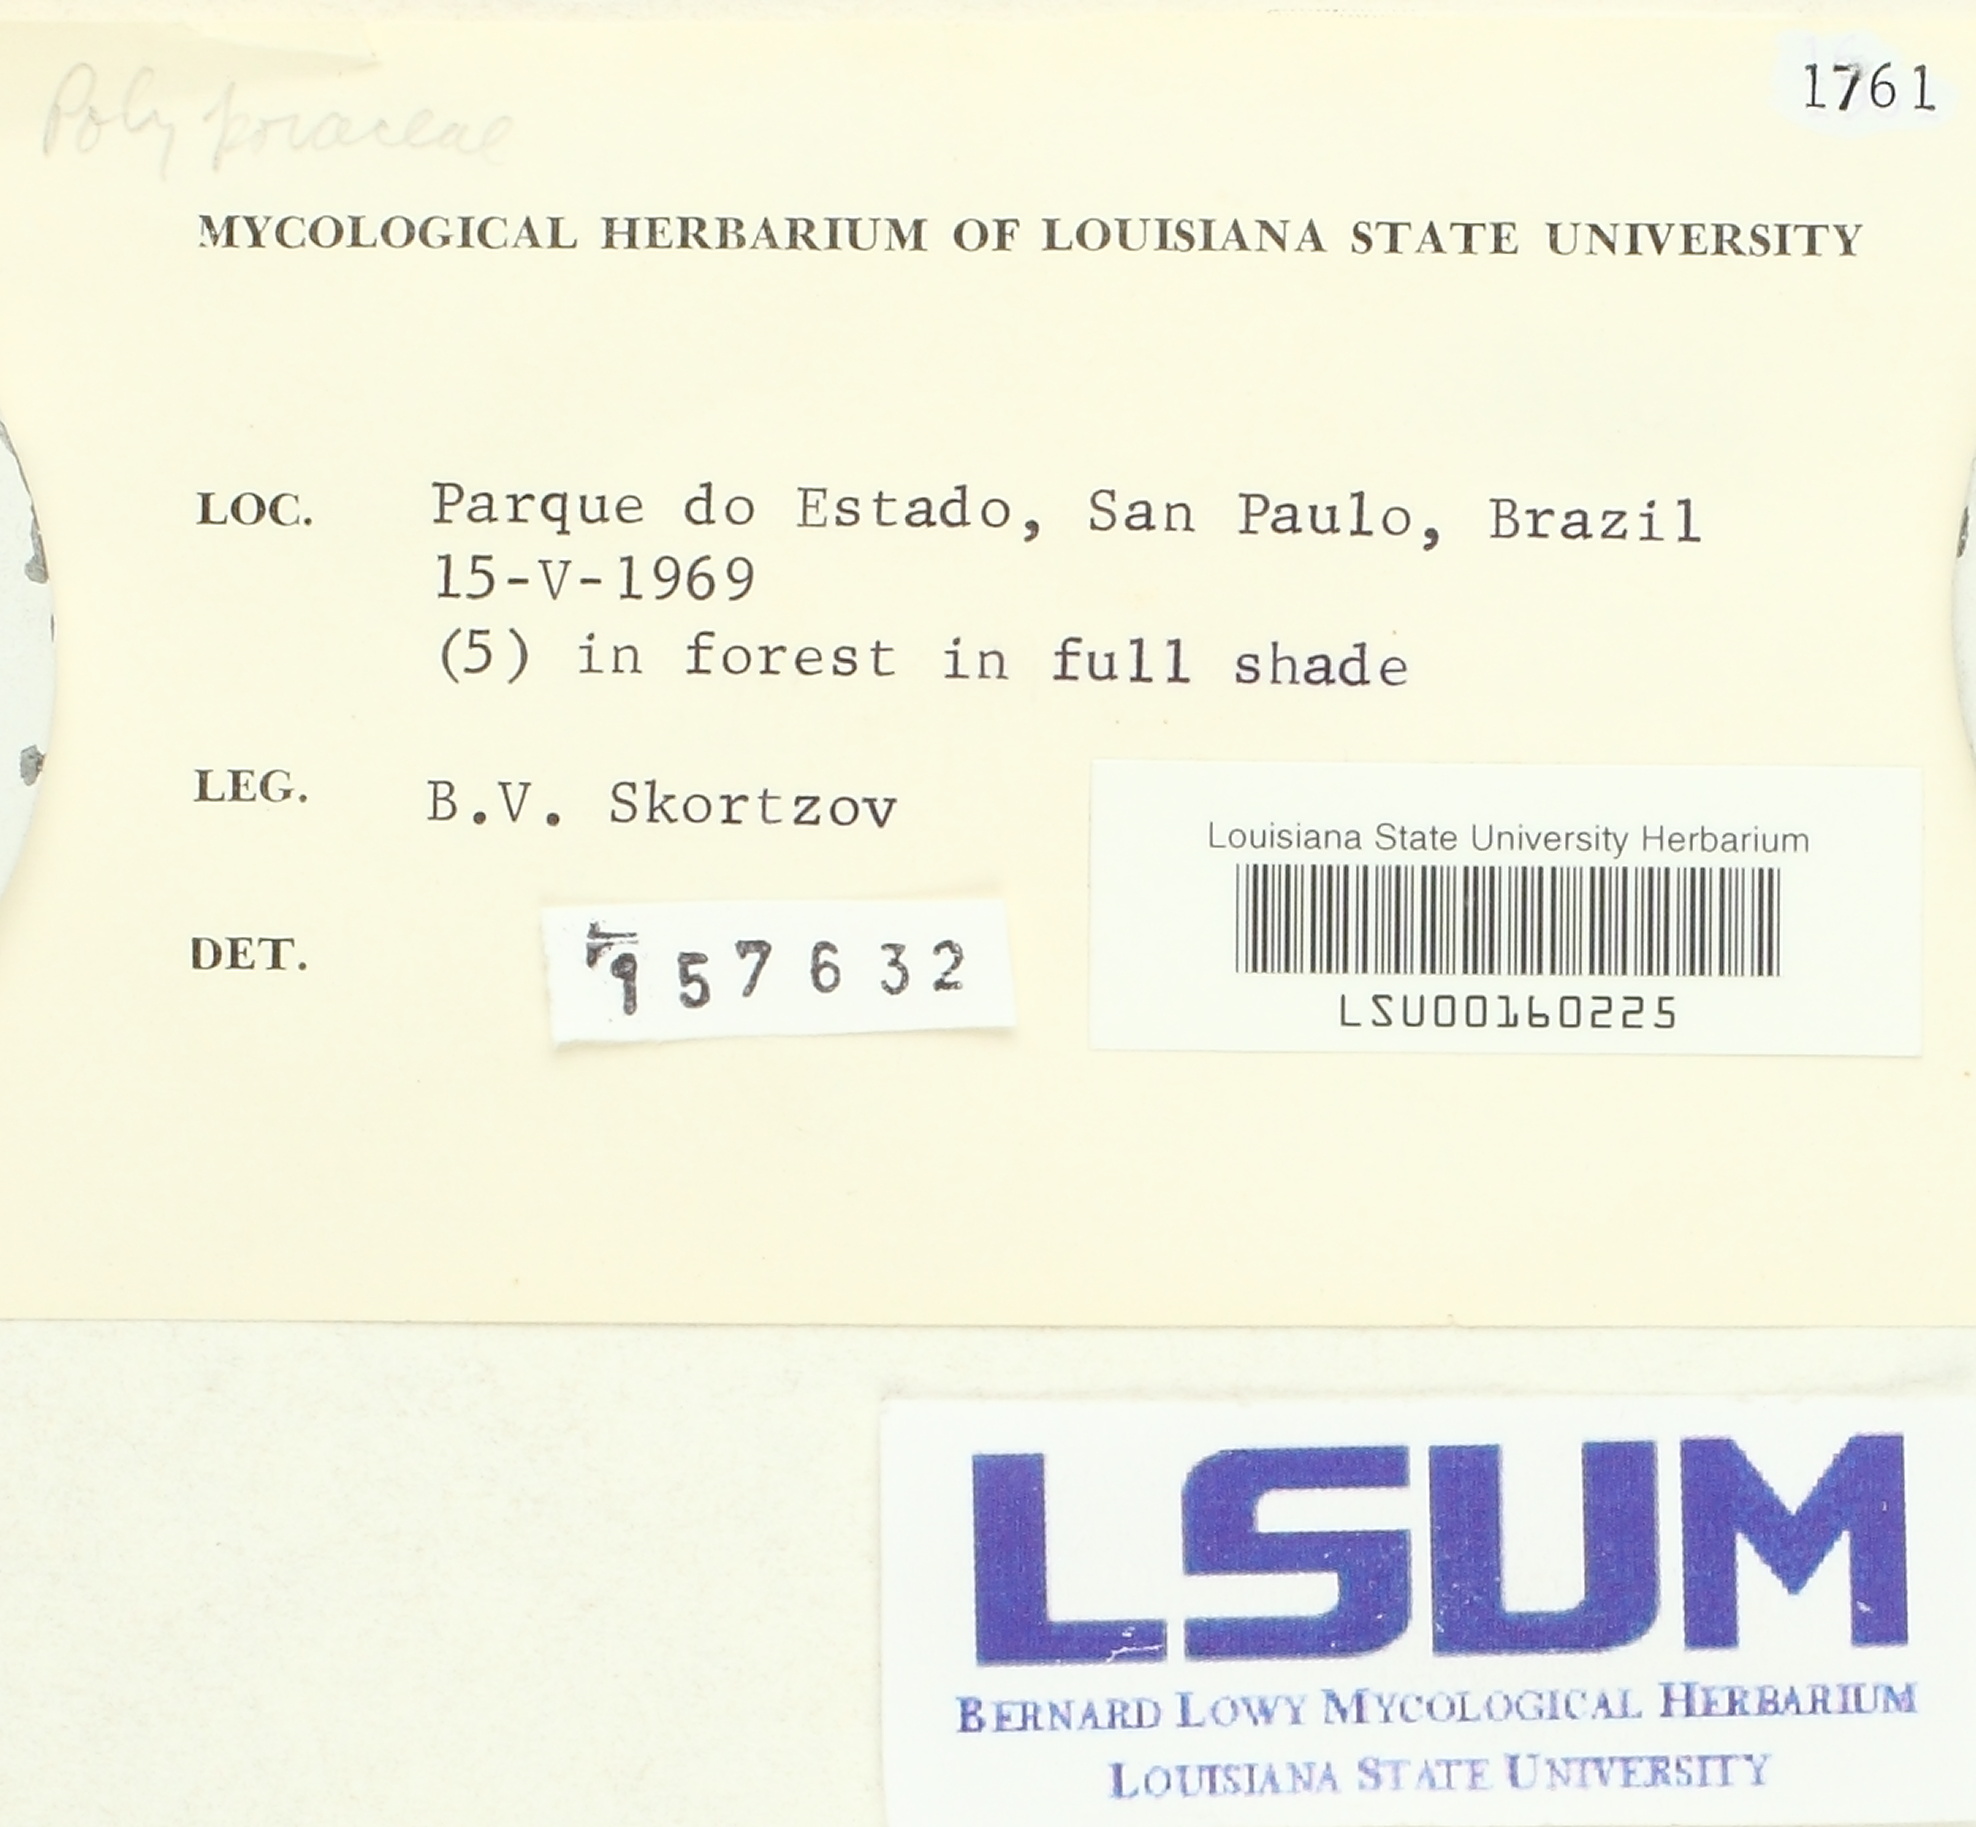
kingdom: Fungi
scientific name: Fungi
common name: Fungi
